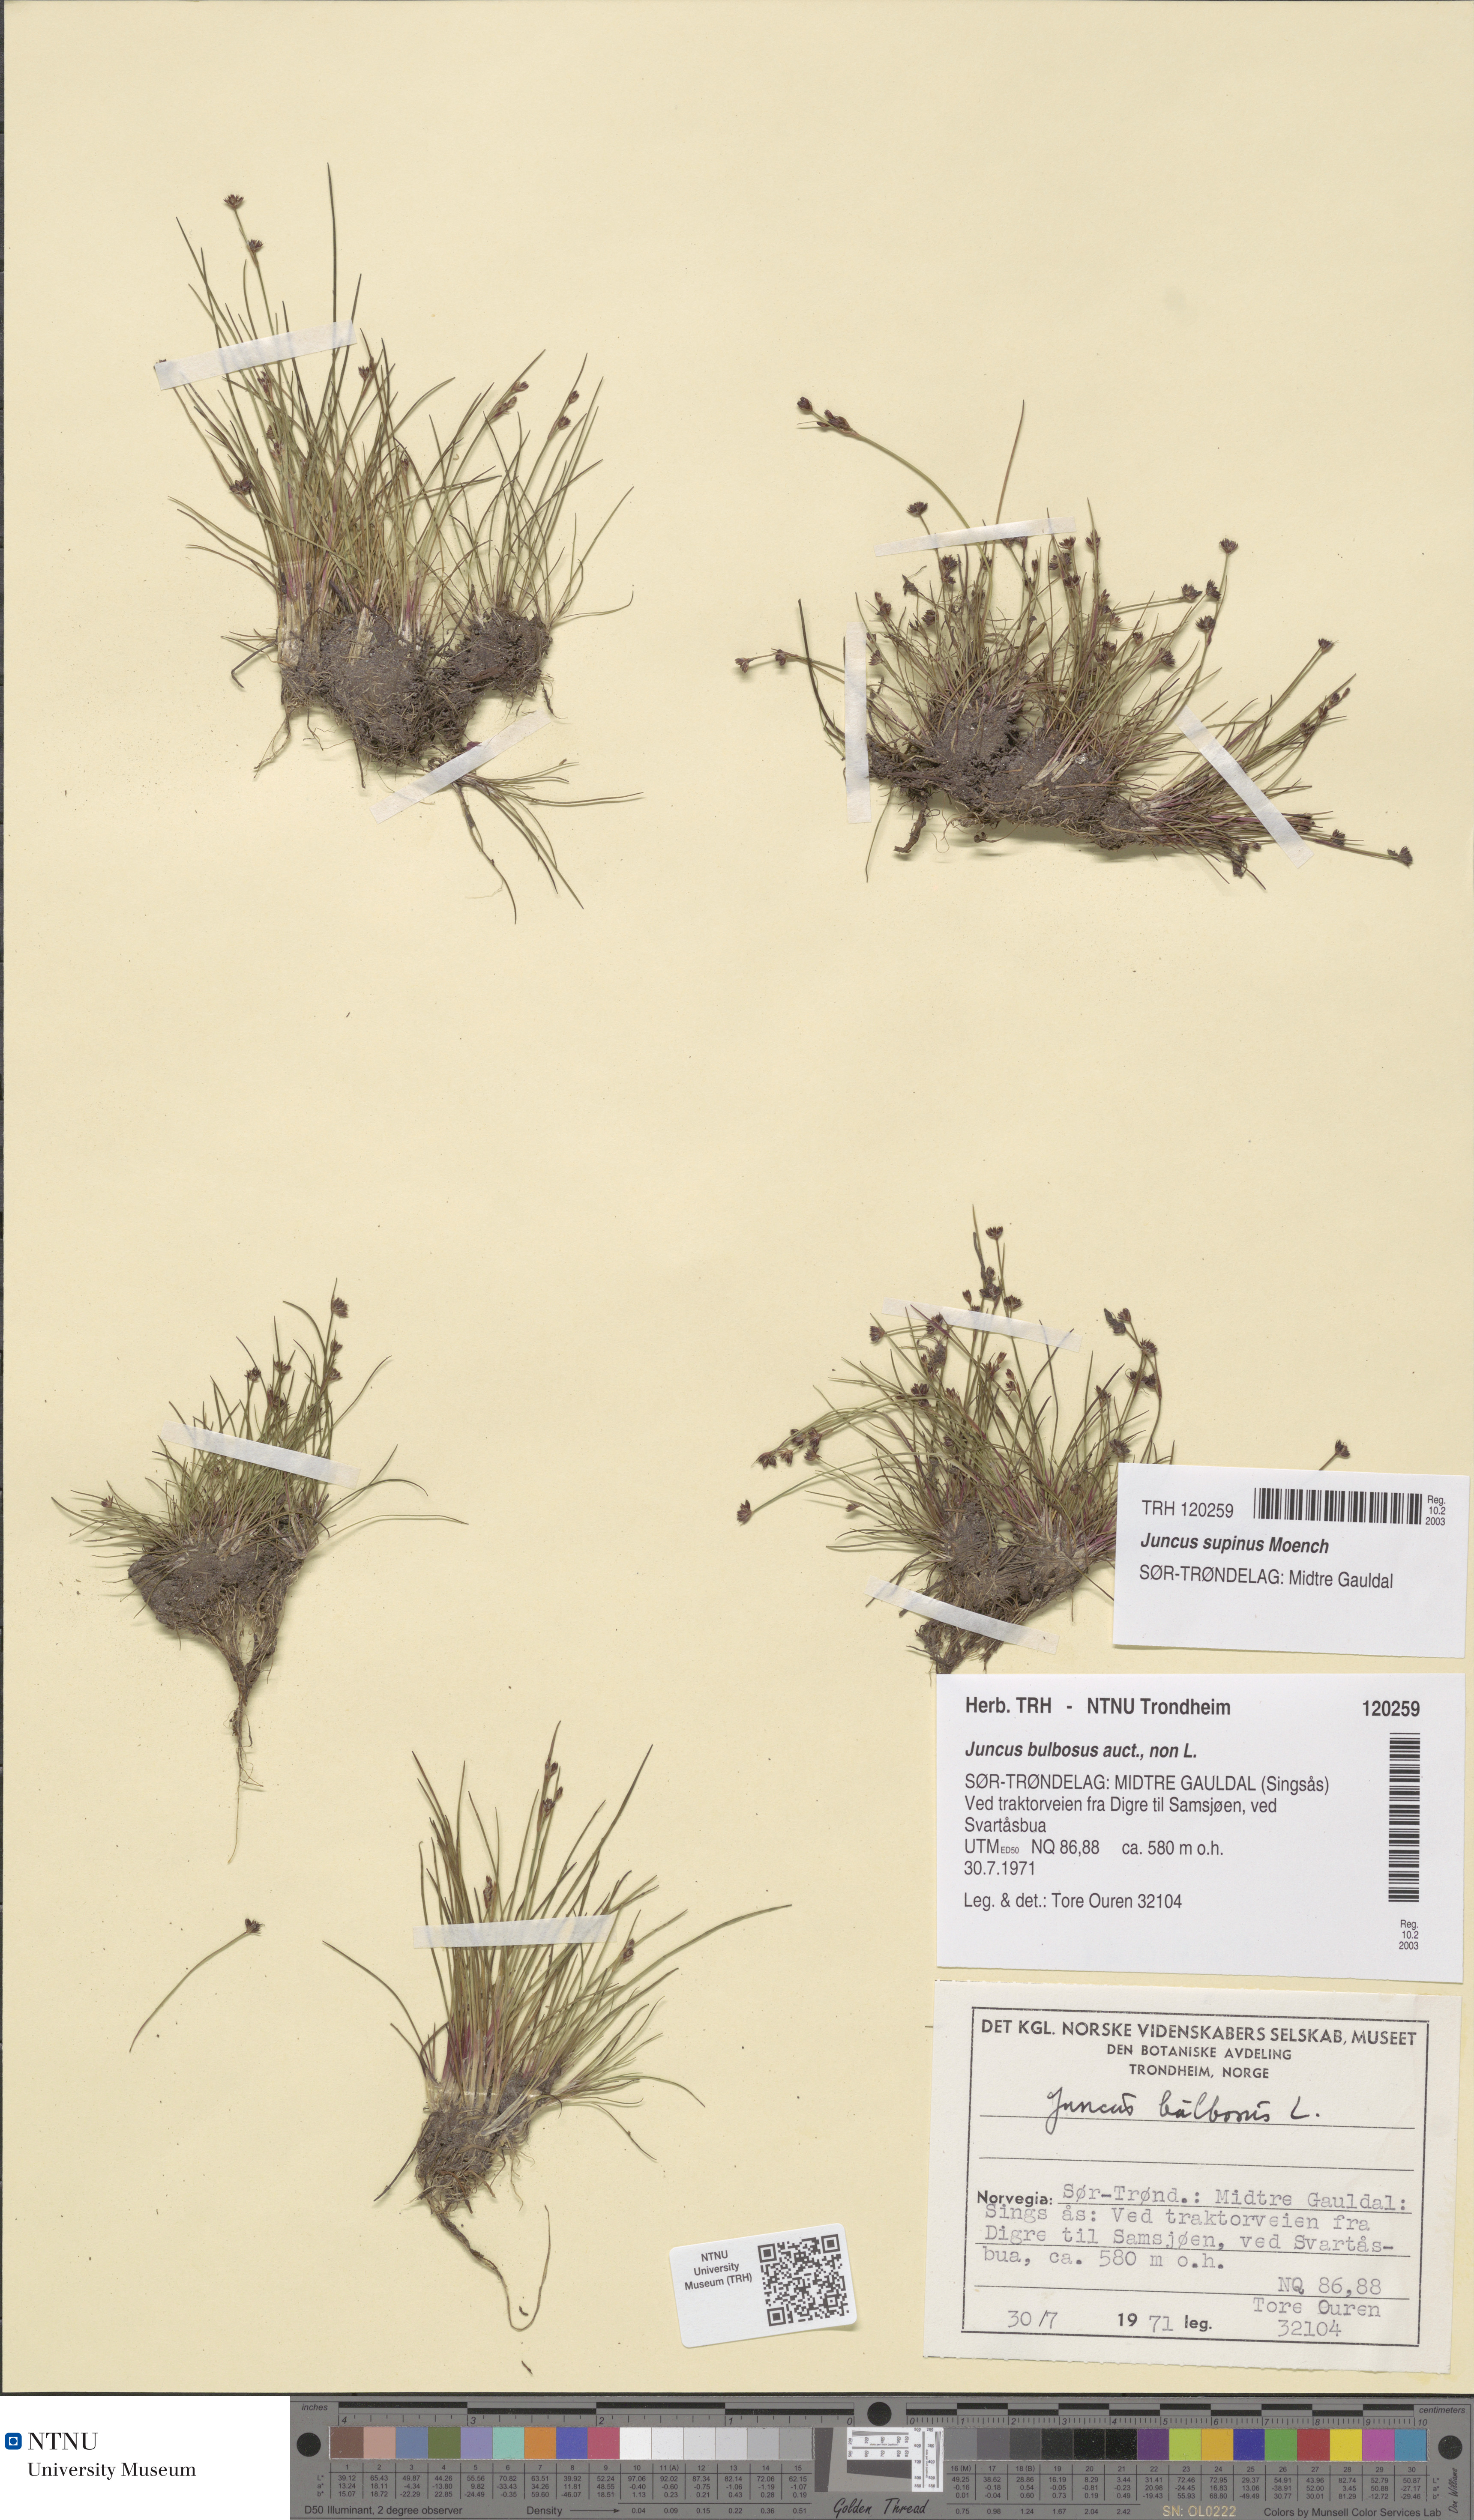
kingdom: Plantae
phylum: Tracheophyta
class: Liliopsida
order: Poales
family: Juncaceae
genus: Juncus
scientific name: Juncus bulbosus
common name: Bulbous rush
